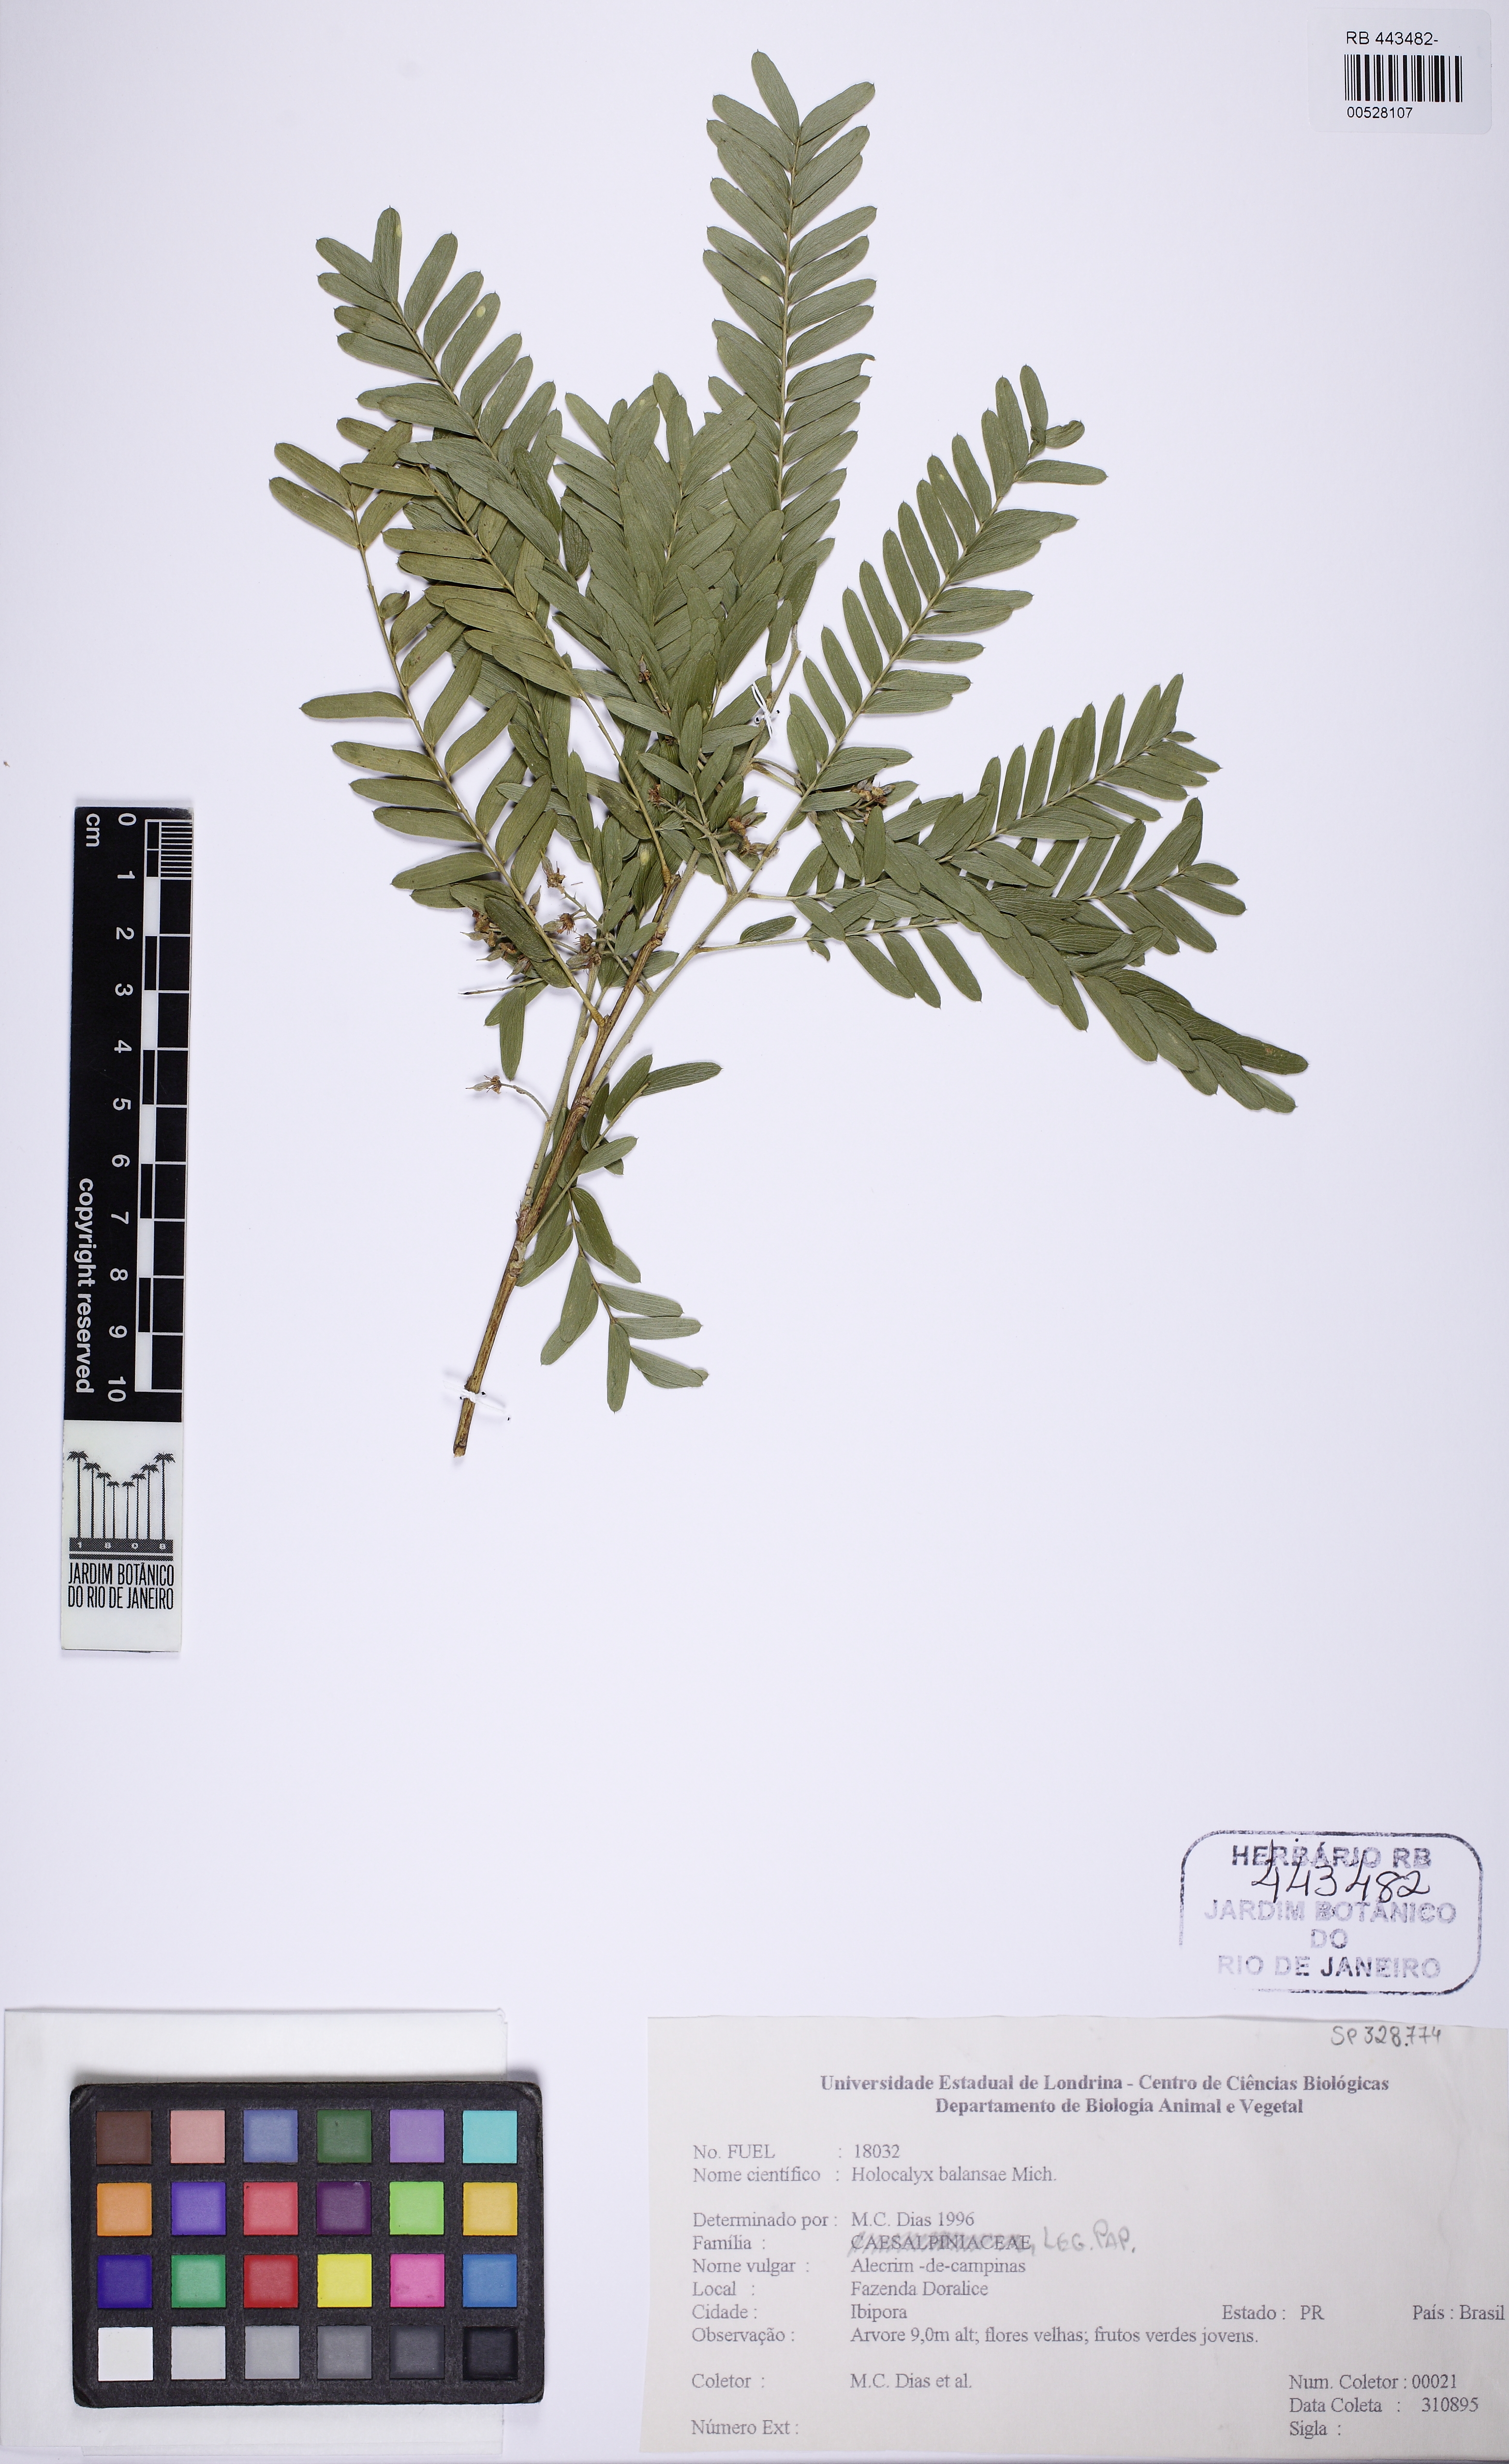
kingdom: Plantae
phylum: Tracheophyta
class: Magnoliopsida
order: Fabales
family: Fabaceae
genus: Holocalyx
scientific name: Holocalyx balansae
